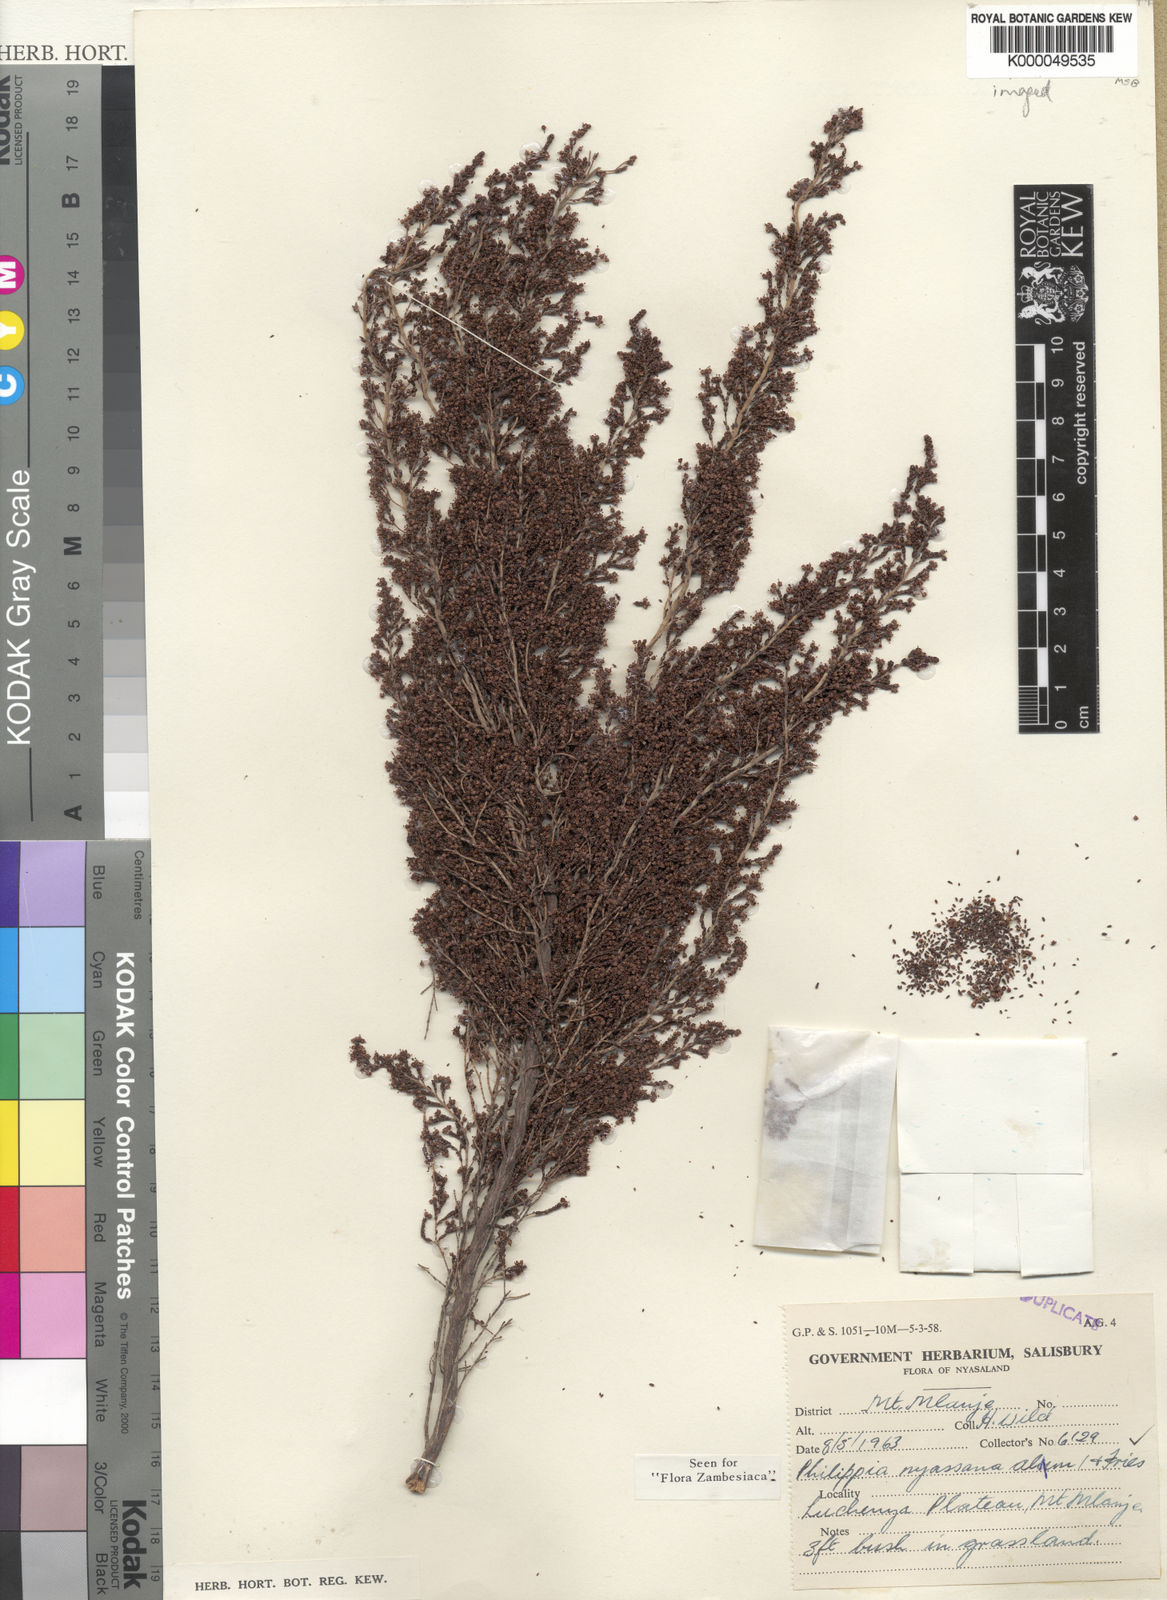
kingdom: Plantae
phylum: Tracheophyta
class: Magnoliopsida
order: Ericales
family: Ericaceae
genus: Erica
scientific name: Erica nyassana
